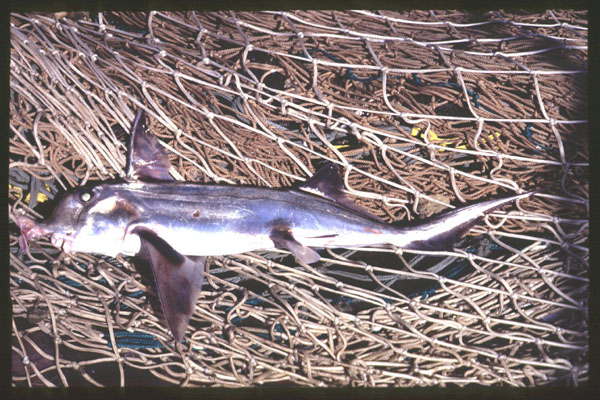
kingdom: Animalia
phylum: Chordata
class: Holocephali
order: Chimaeriformes
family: Callorhinchidae
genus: Callorhinchus
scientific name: Callorhinchus capensis
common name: Cape elephantfish
